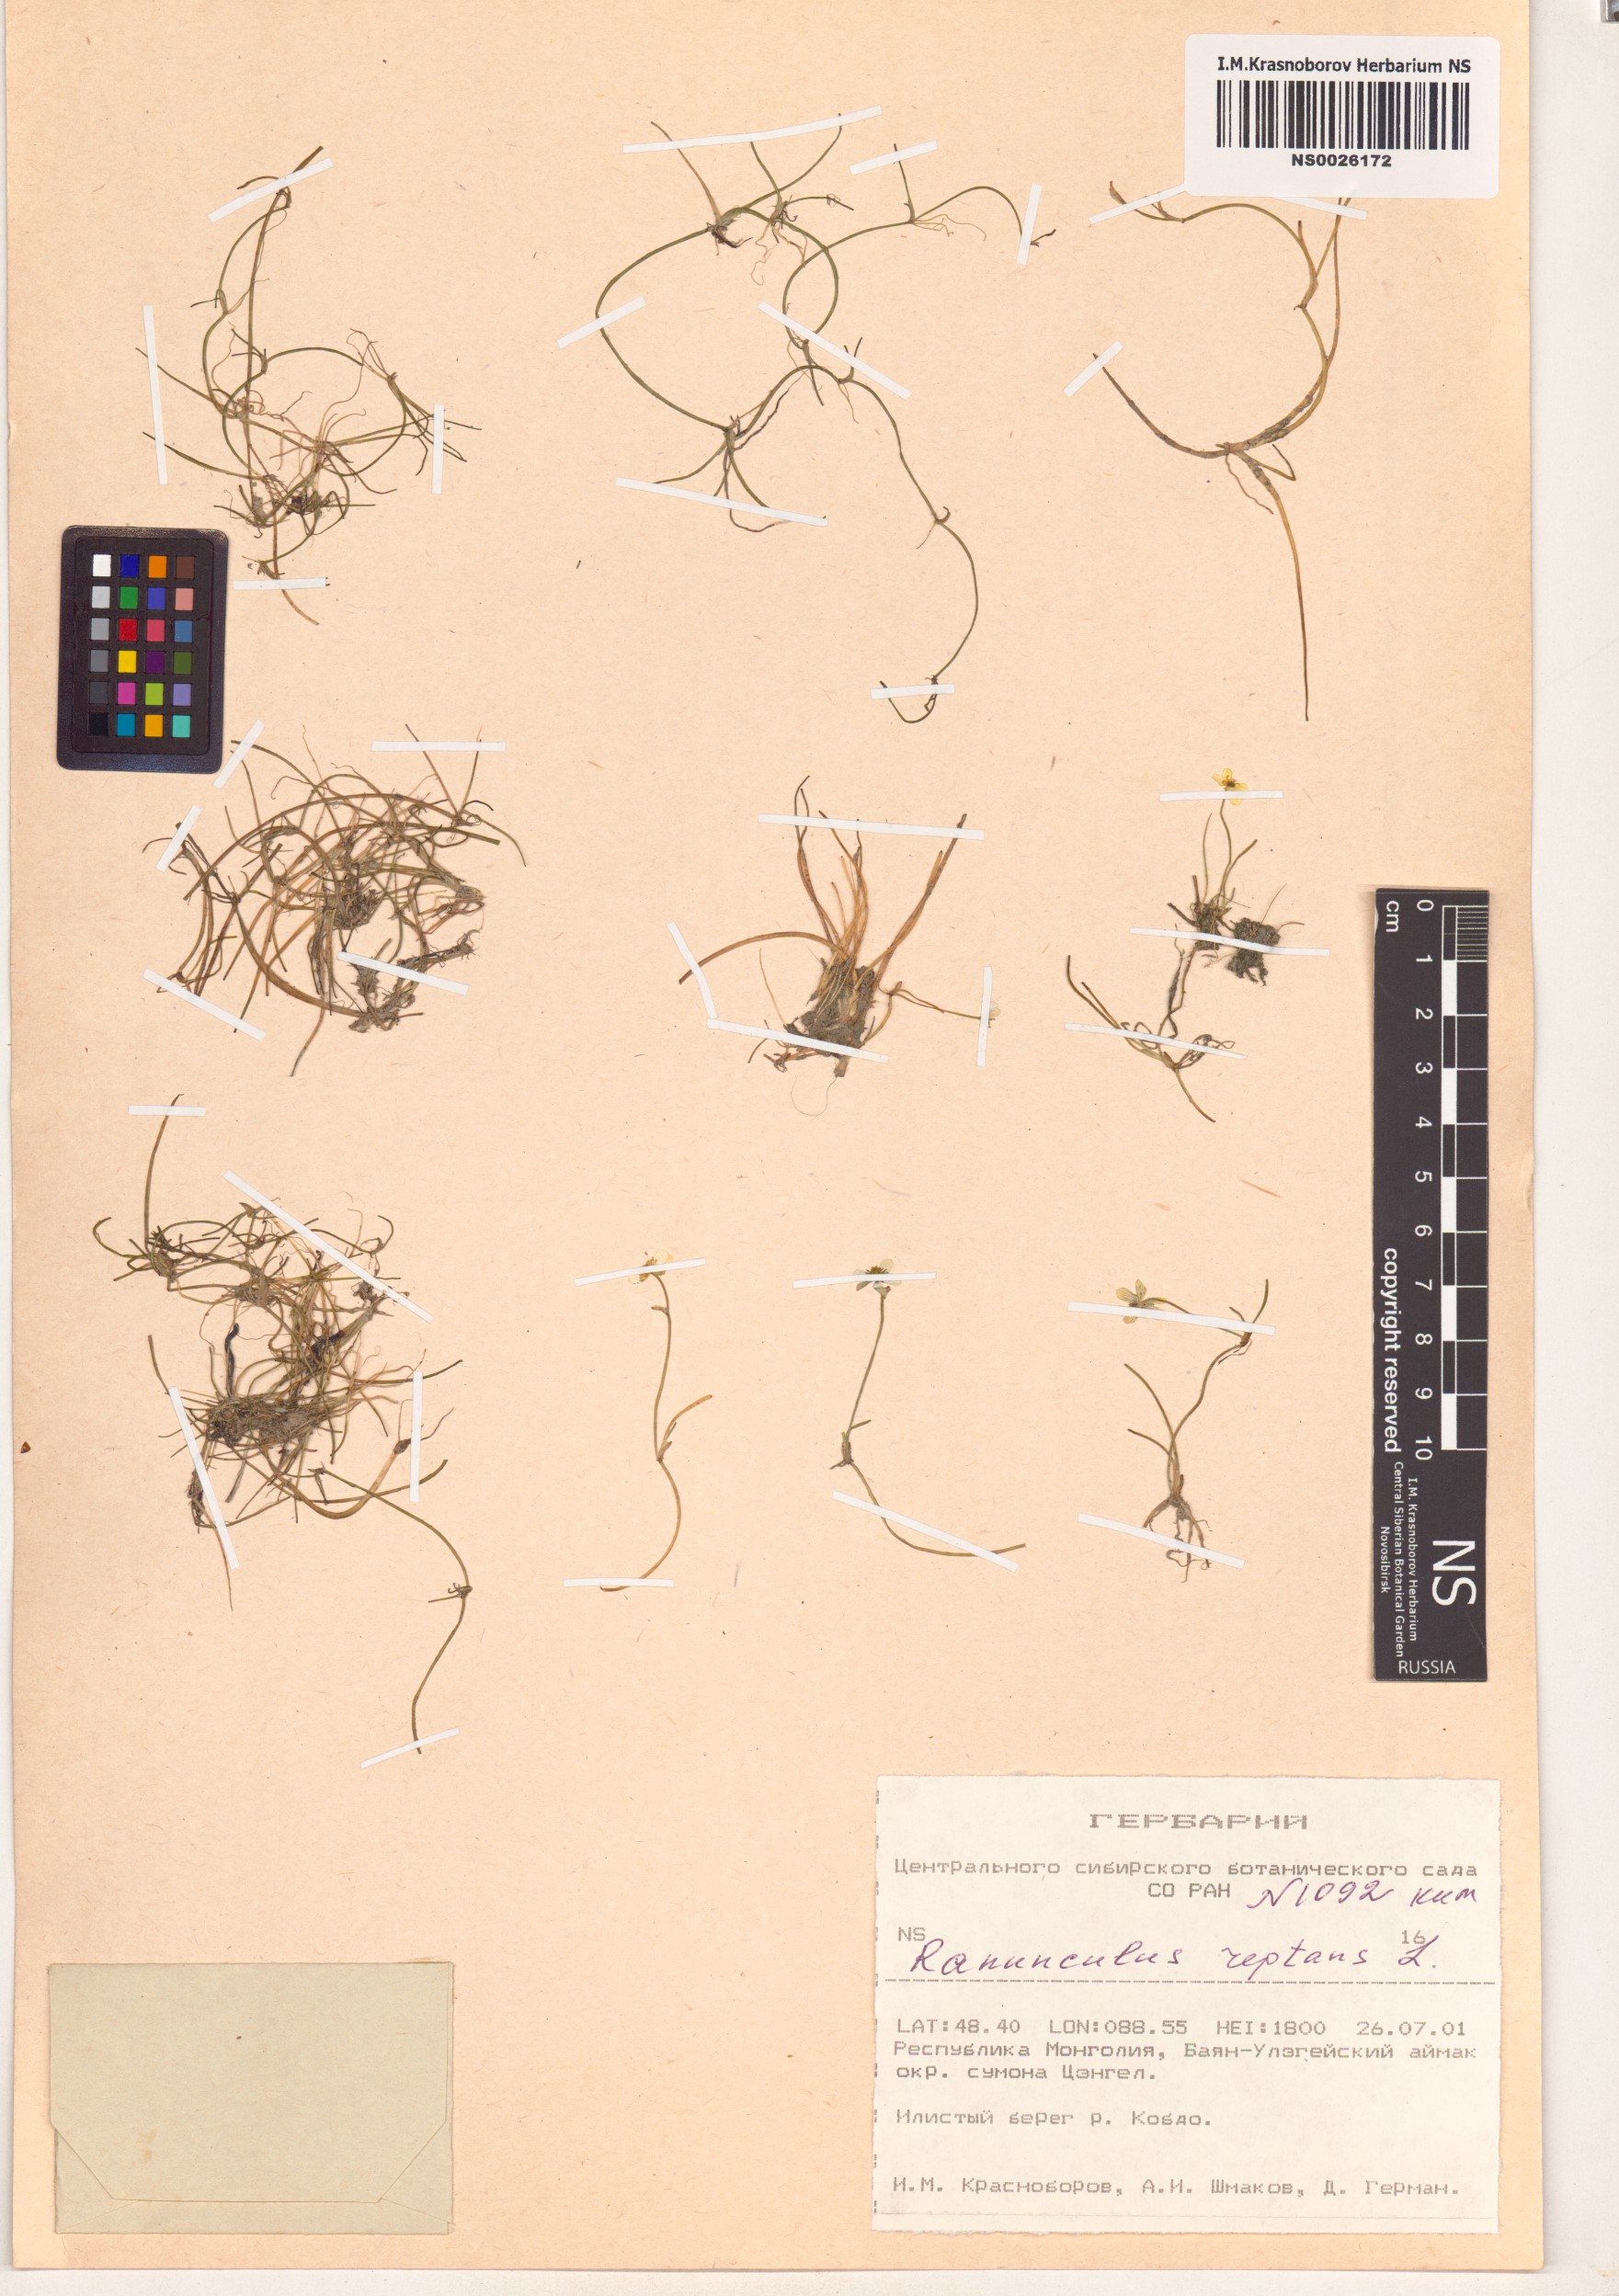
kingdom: Plantae
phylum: Tracheophyta
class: Magnoliopsida
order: Ranunculales
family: Ranunculaceae
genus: Ranunculus
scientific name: Ranunculus reptans
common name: Creeping spearwort
